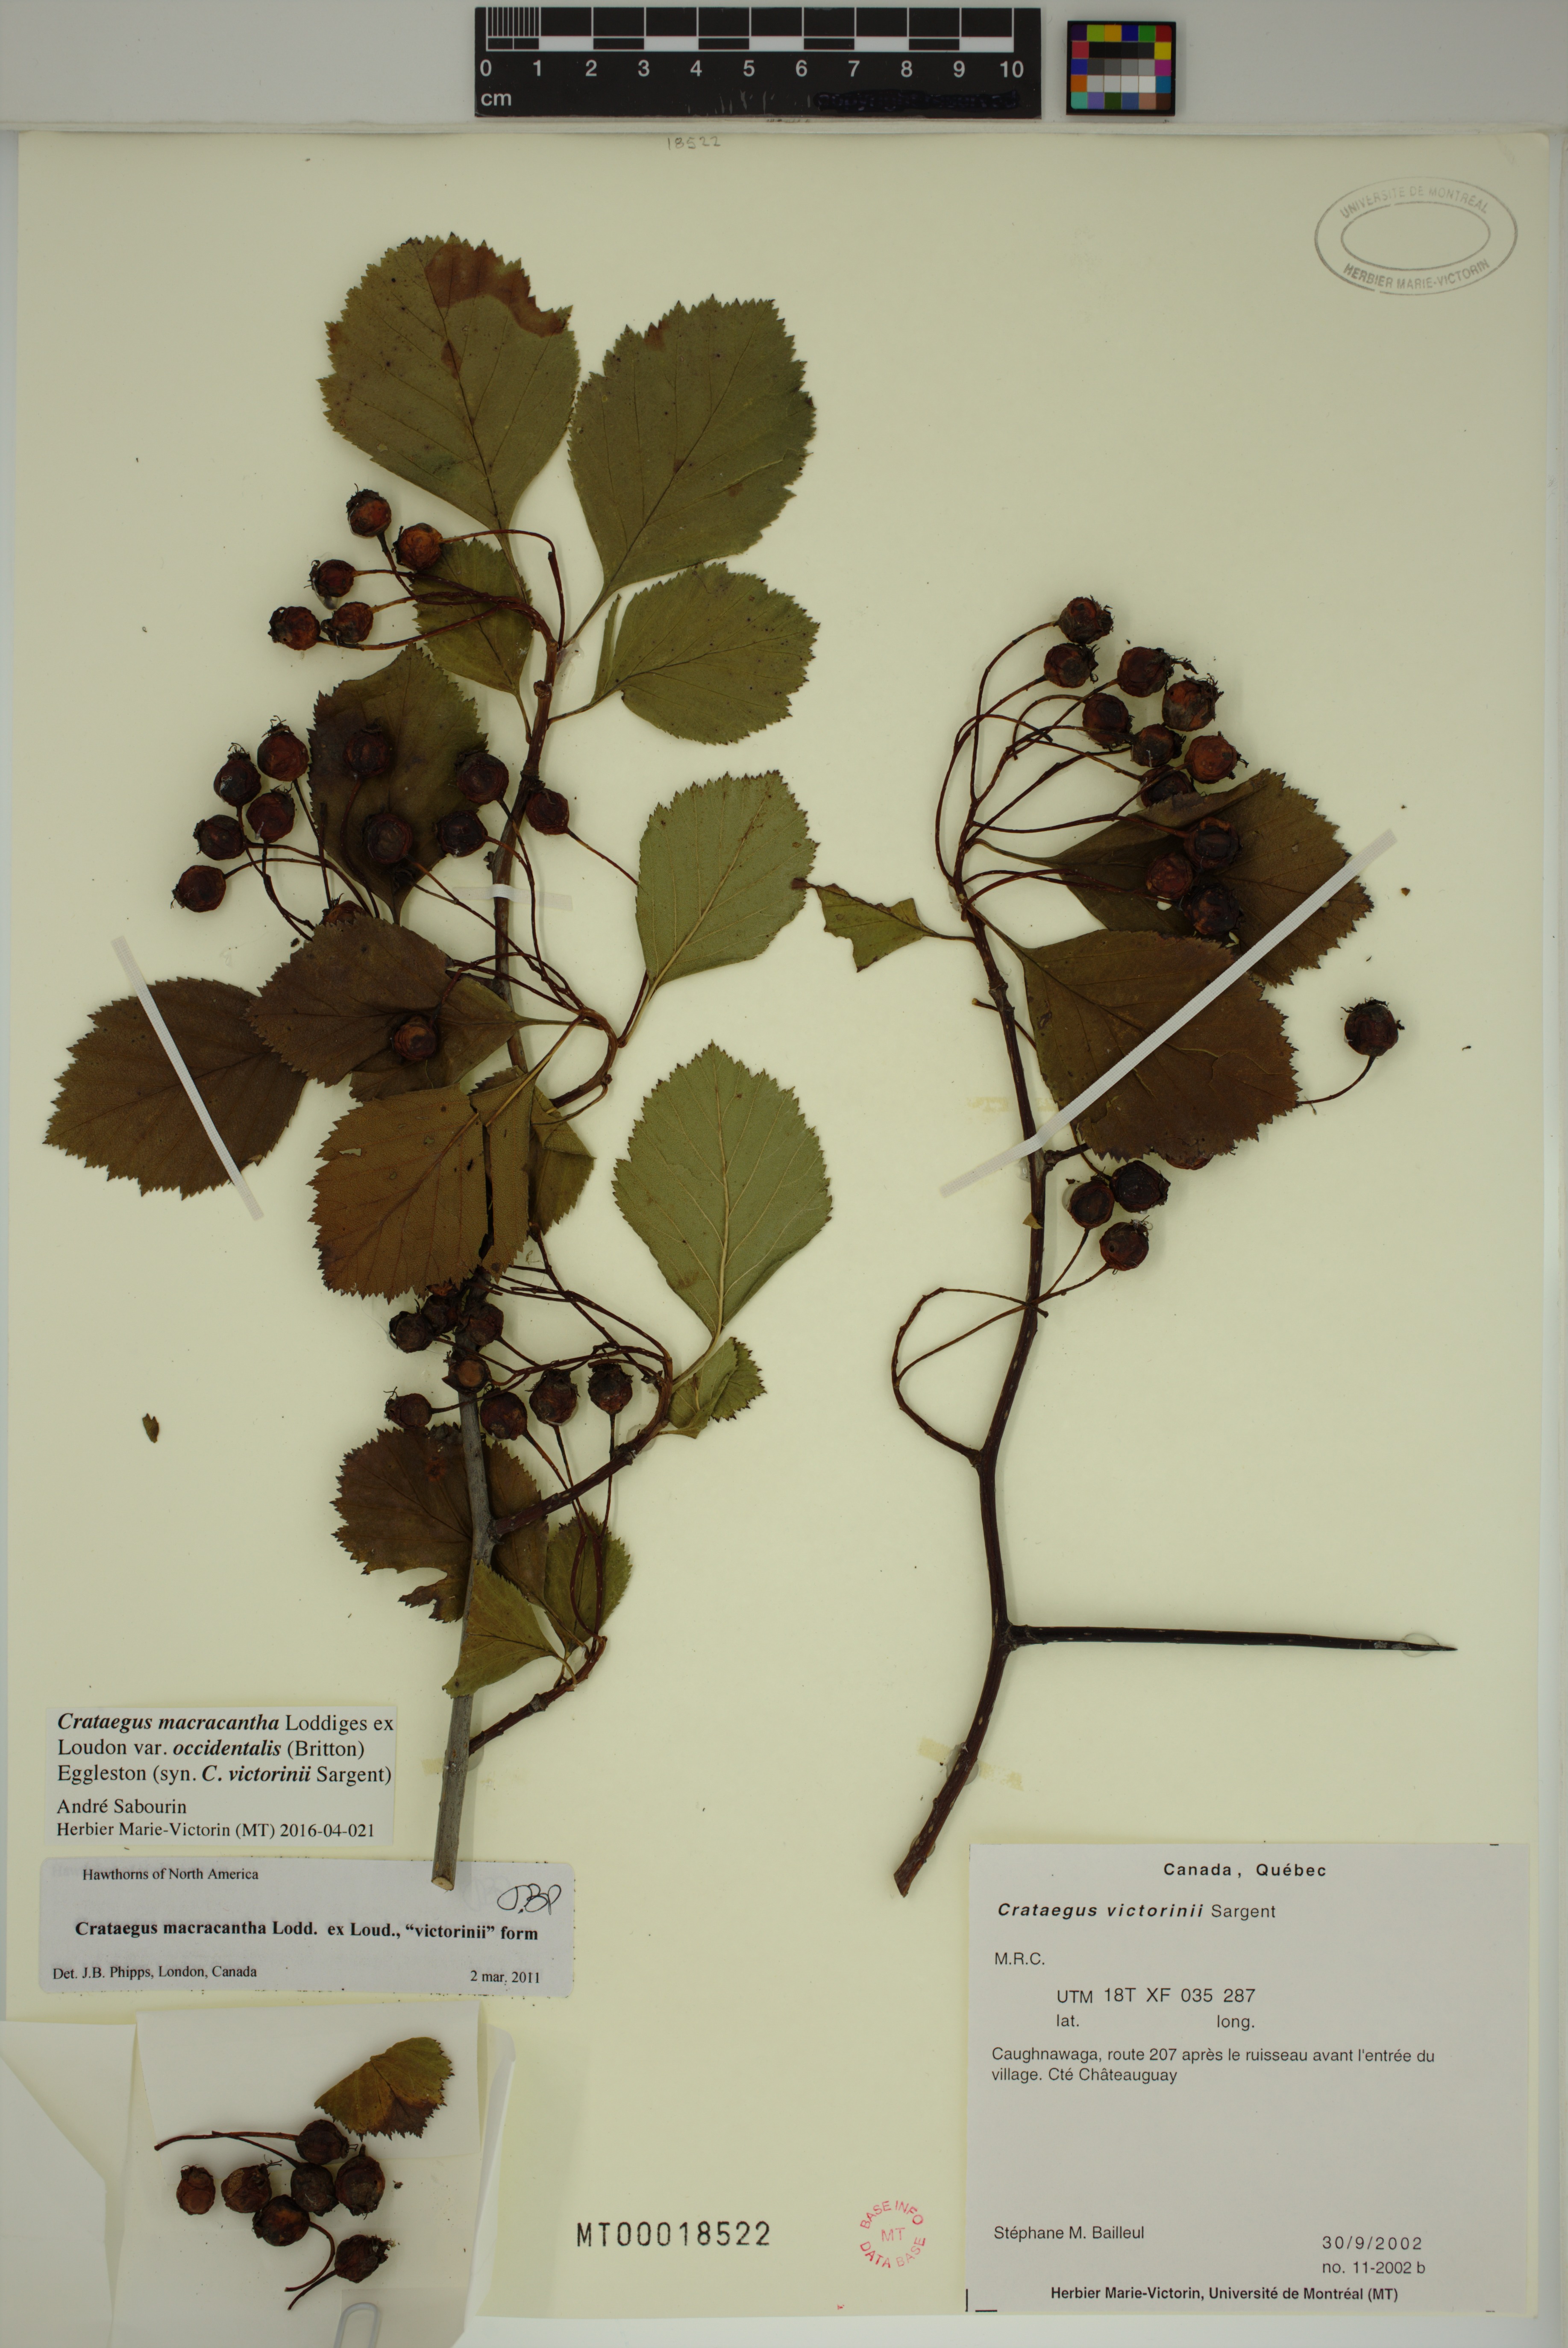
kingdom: Plantae
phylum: Tracheophyta
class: Magnoliopsida
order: Rosales
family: Rosaceae
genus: Crataegus
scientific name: Crataegus macracantha
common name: Large-thorn hawthorn
